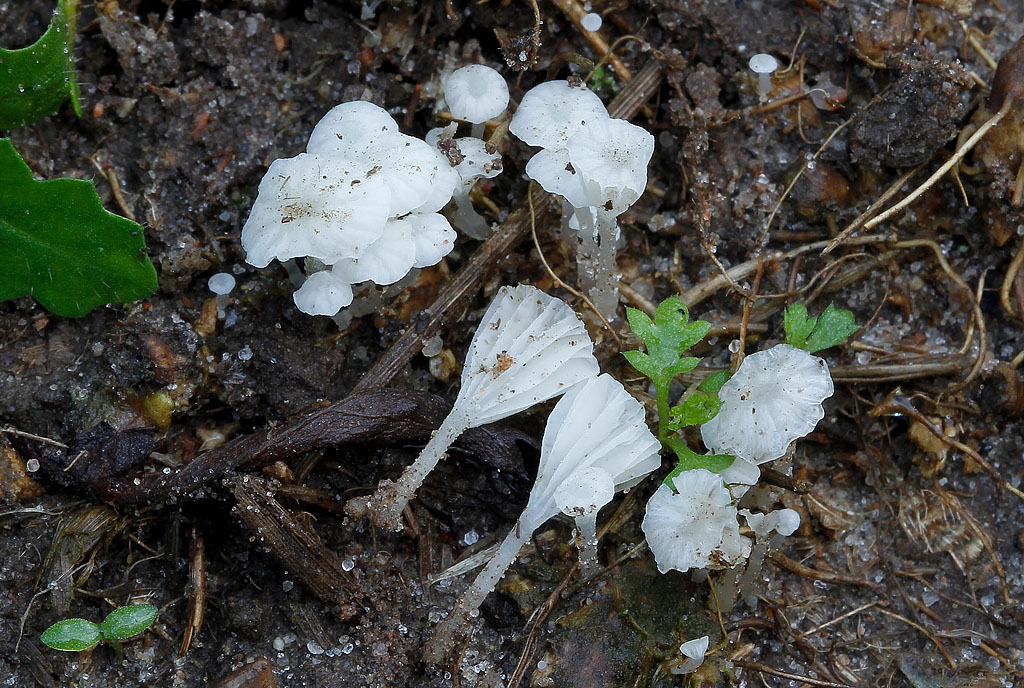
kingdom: Fungi
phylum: Basidiomycota
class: Agaricomycetes
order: Agaricales
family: Mycenaceae
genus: Atheniella
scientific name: Atheniella delectabilis
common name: nitrøs huesvamp
